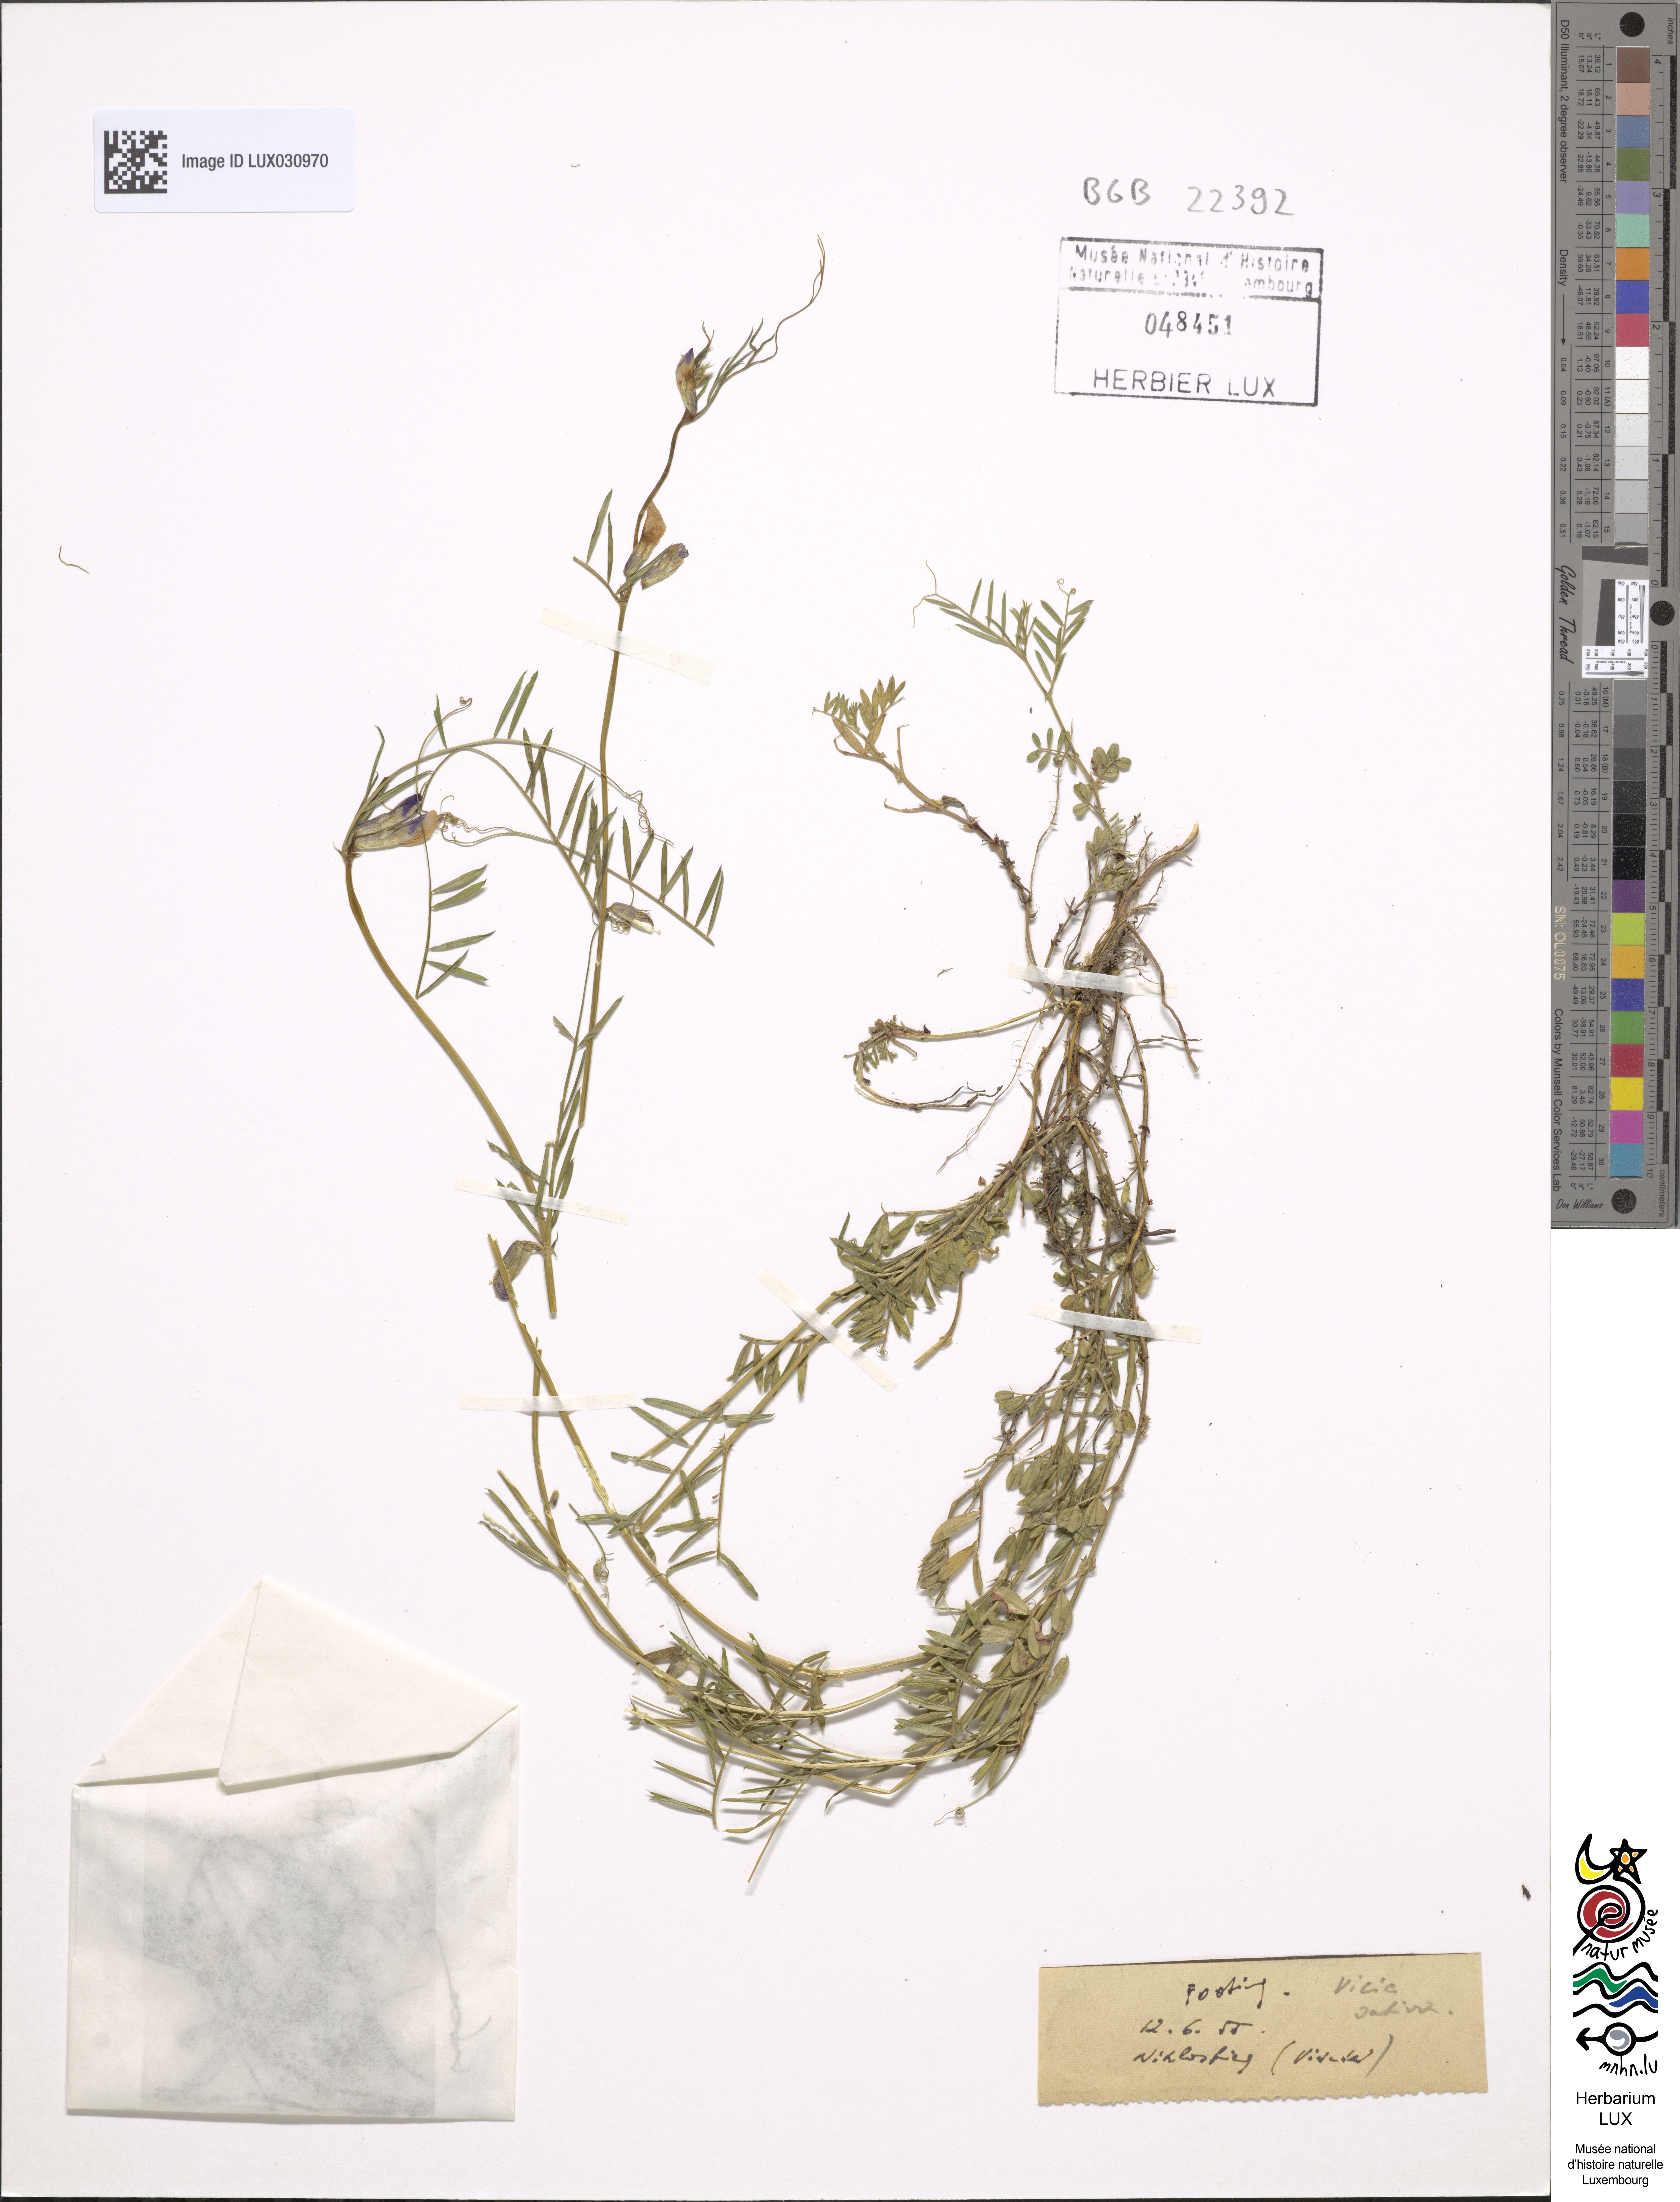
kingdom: Plantae
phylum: Tracheophyta
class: Magnoliopsida
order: Fabales
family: Fabaceae
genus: Vicia
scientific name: Vicia sativa
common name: Garden vetch
